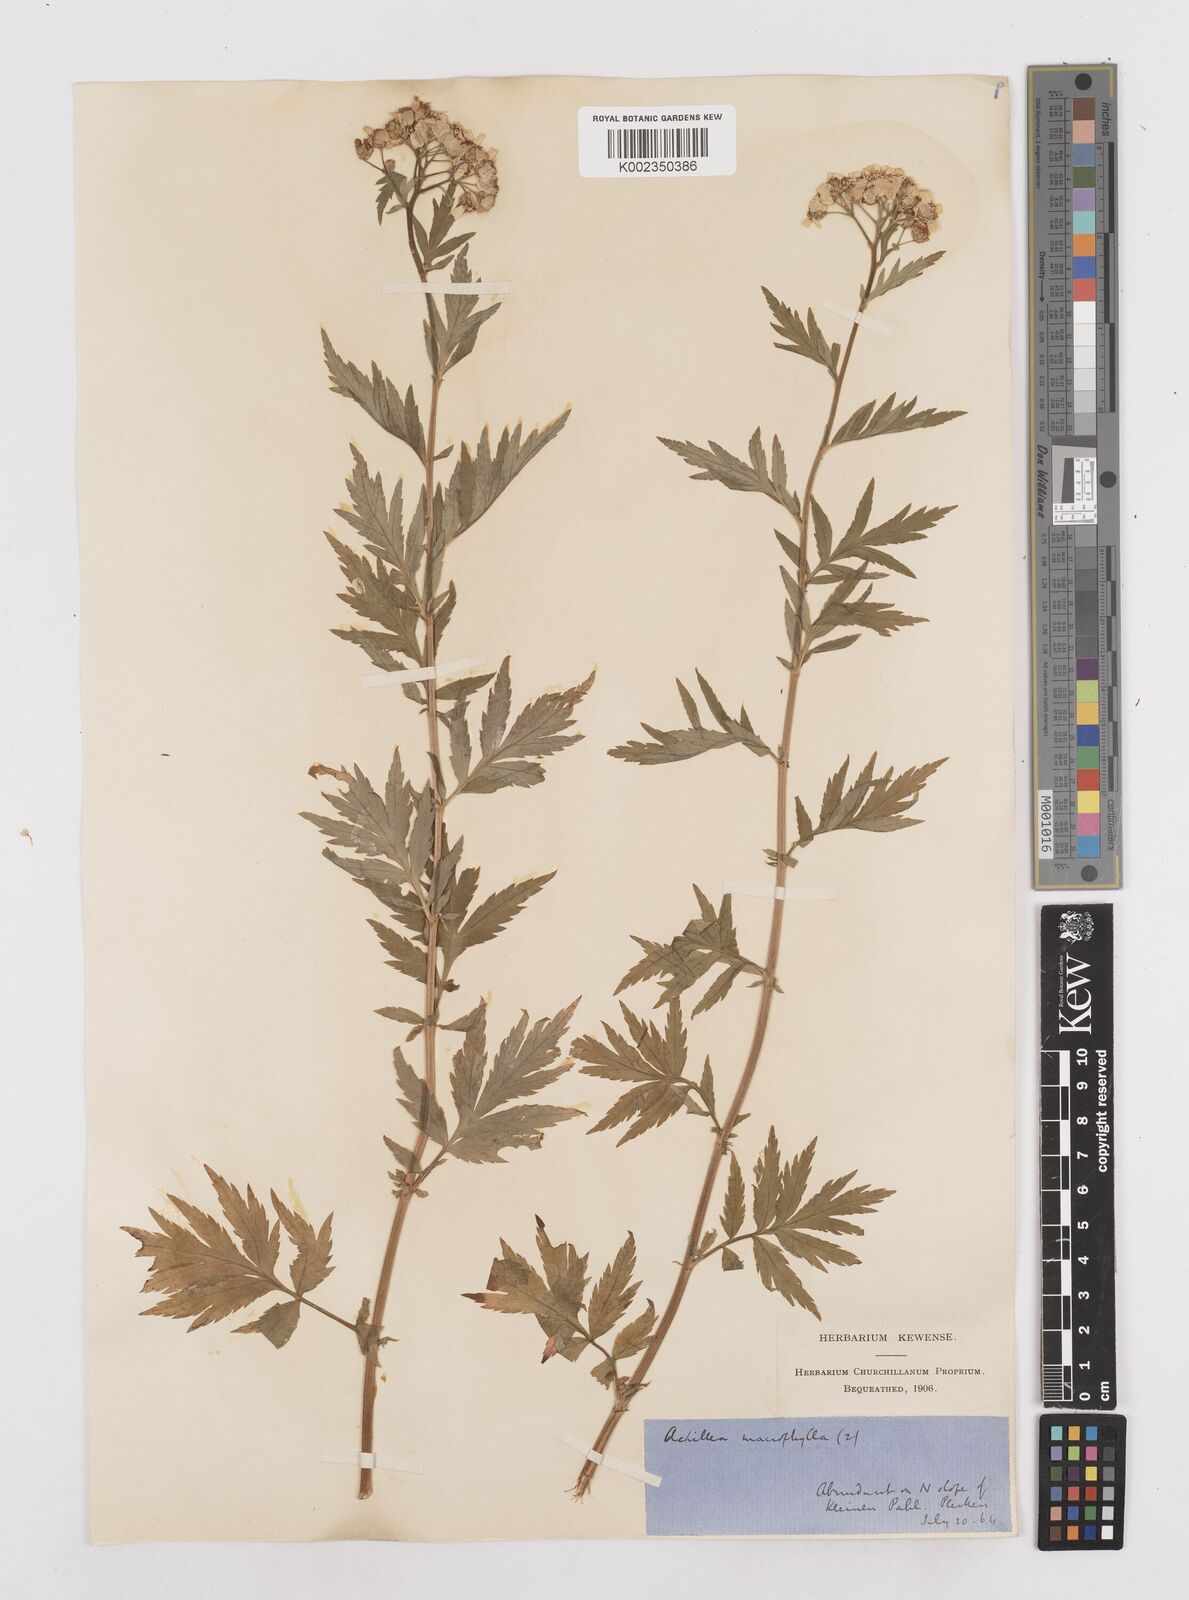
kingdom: Plantae
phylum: Tracheophyta
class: Magnoliopsida
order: Asterales
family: Asteraceae
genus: Achillea
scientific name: Achillea macrophylla
